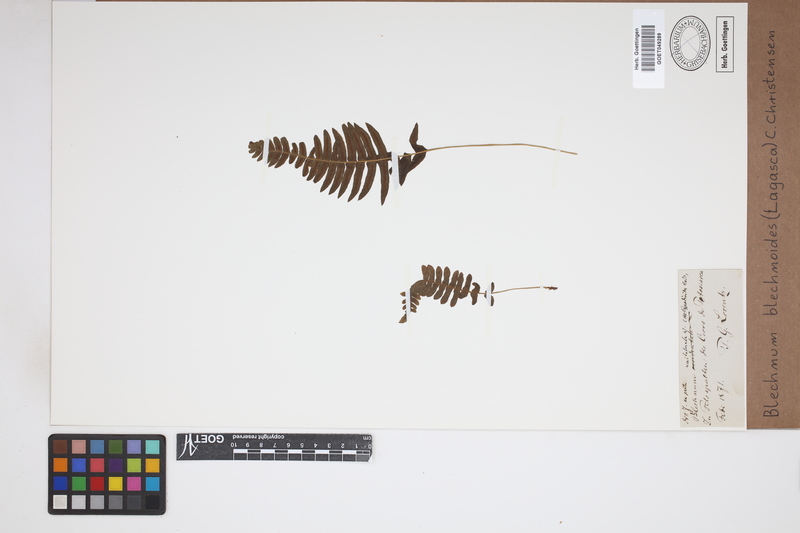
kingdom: Plantae
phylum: Tracheophyta
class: Polypodiopsida
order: Polypodiales
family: Blechnaceae
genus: Blechnum
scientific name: Blechnum polypodioides
